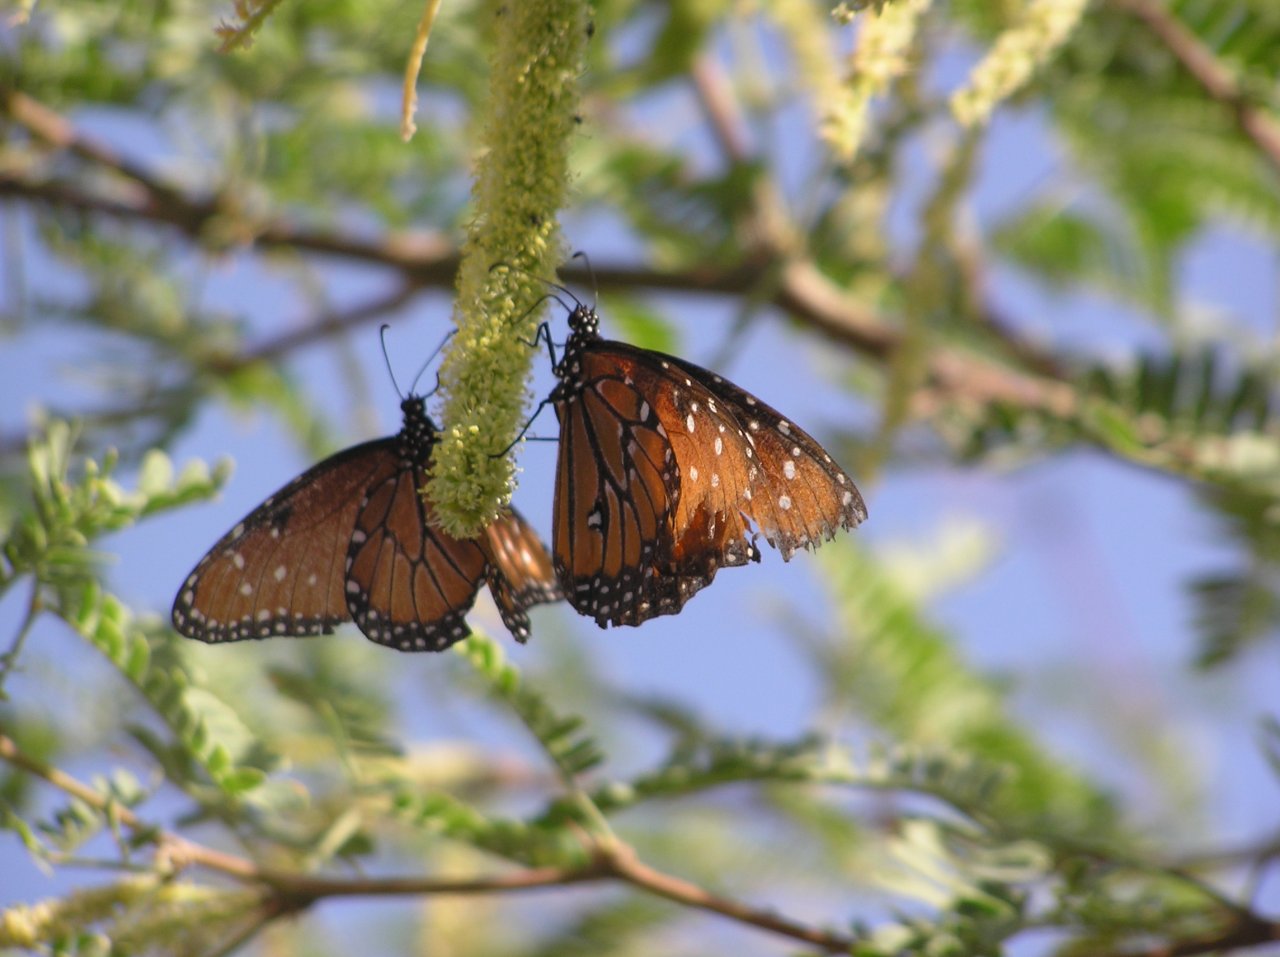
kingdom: Animalia
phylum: Arthropoda
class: Insecta
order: Lepidoptera
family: Nymphalidae
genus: Danaus
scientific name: Danaus gilippus
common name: Queen
